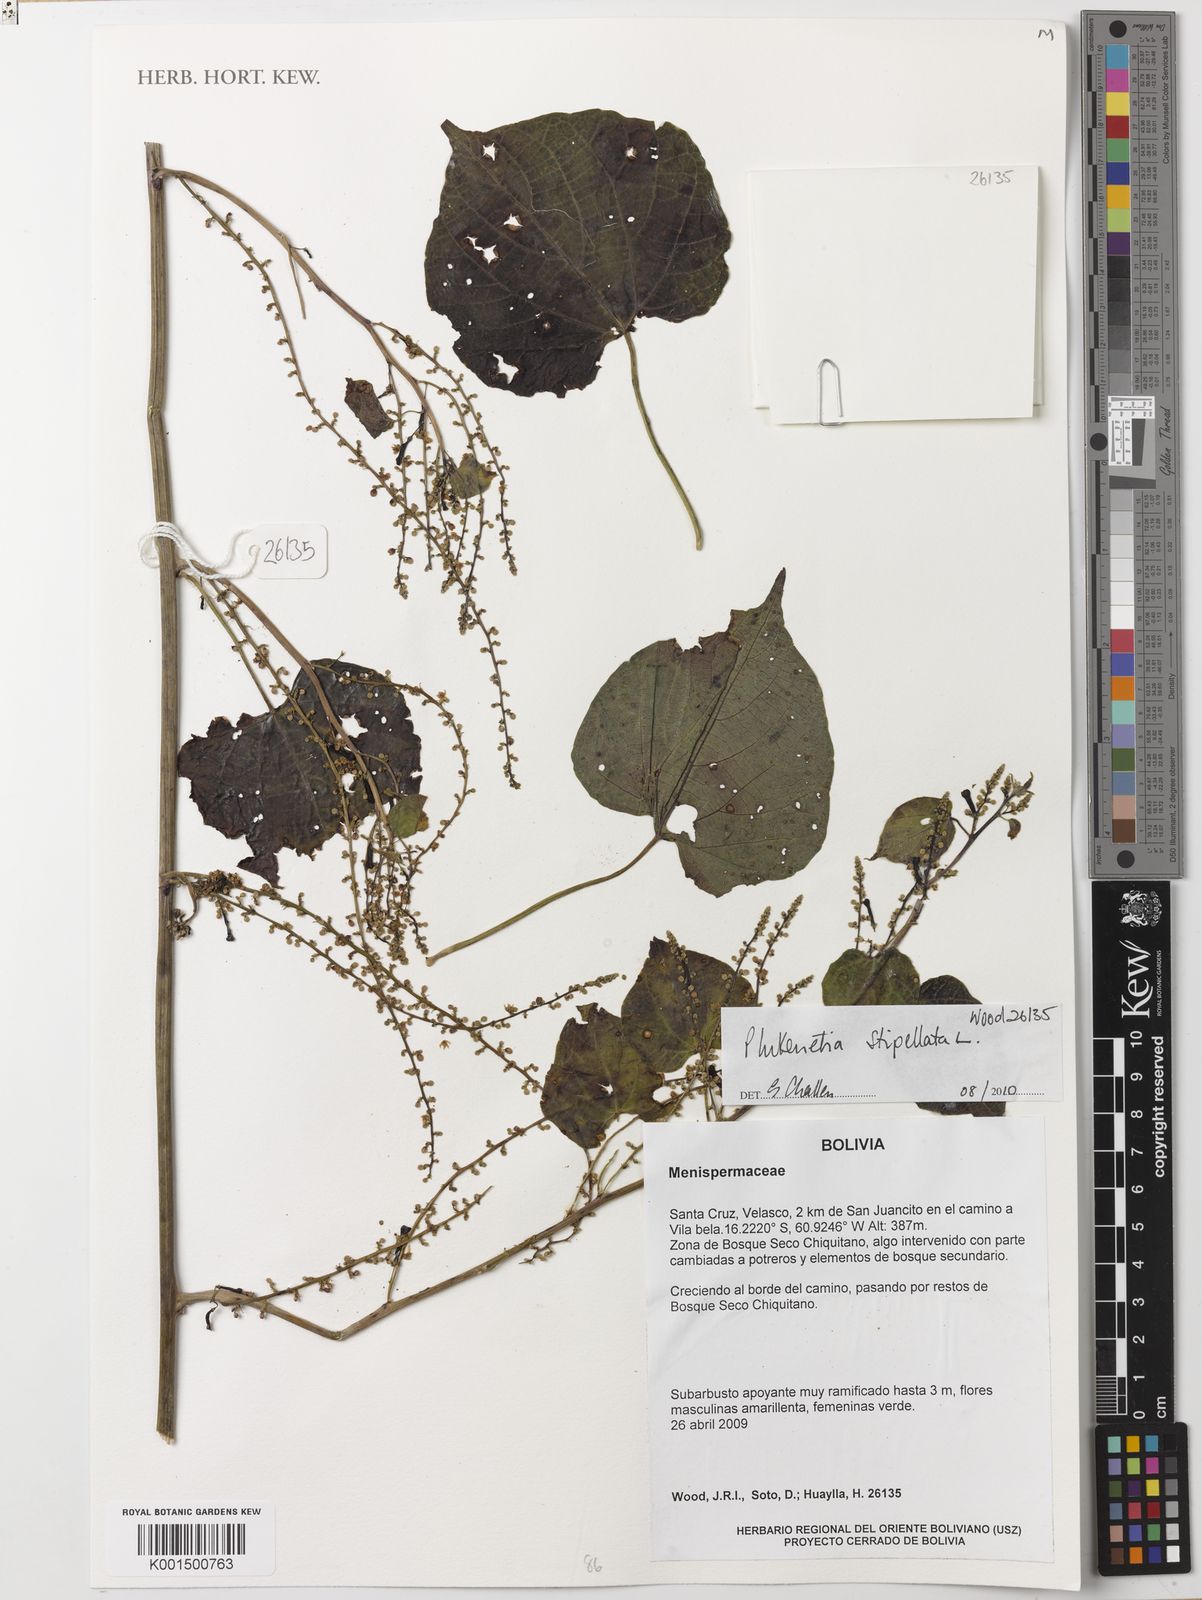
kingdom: Plantae
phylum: Tracheophyta
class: Magnoliopsida
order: Malpighiales
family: Euphorbiaceae
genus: Plukenetia
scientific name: Plukenetia stipellata
